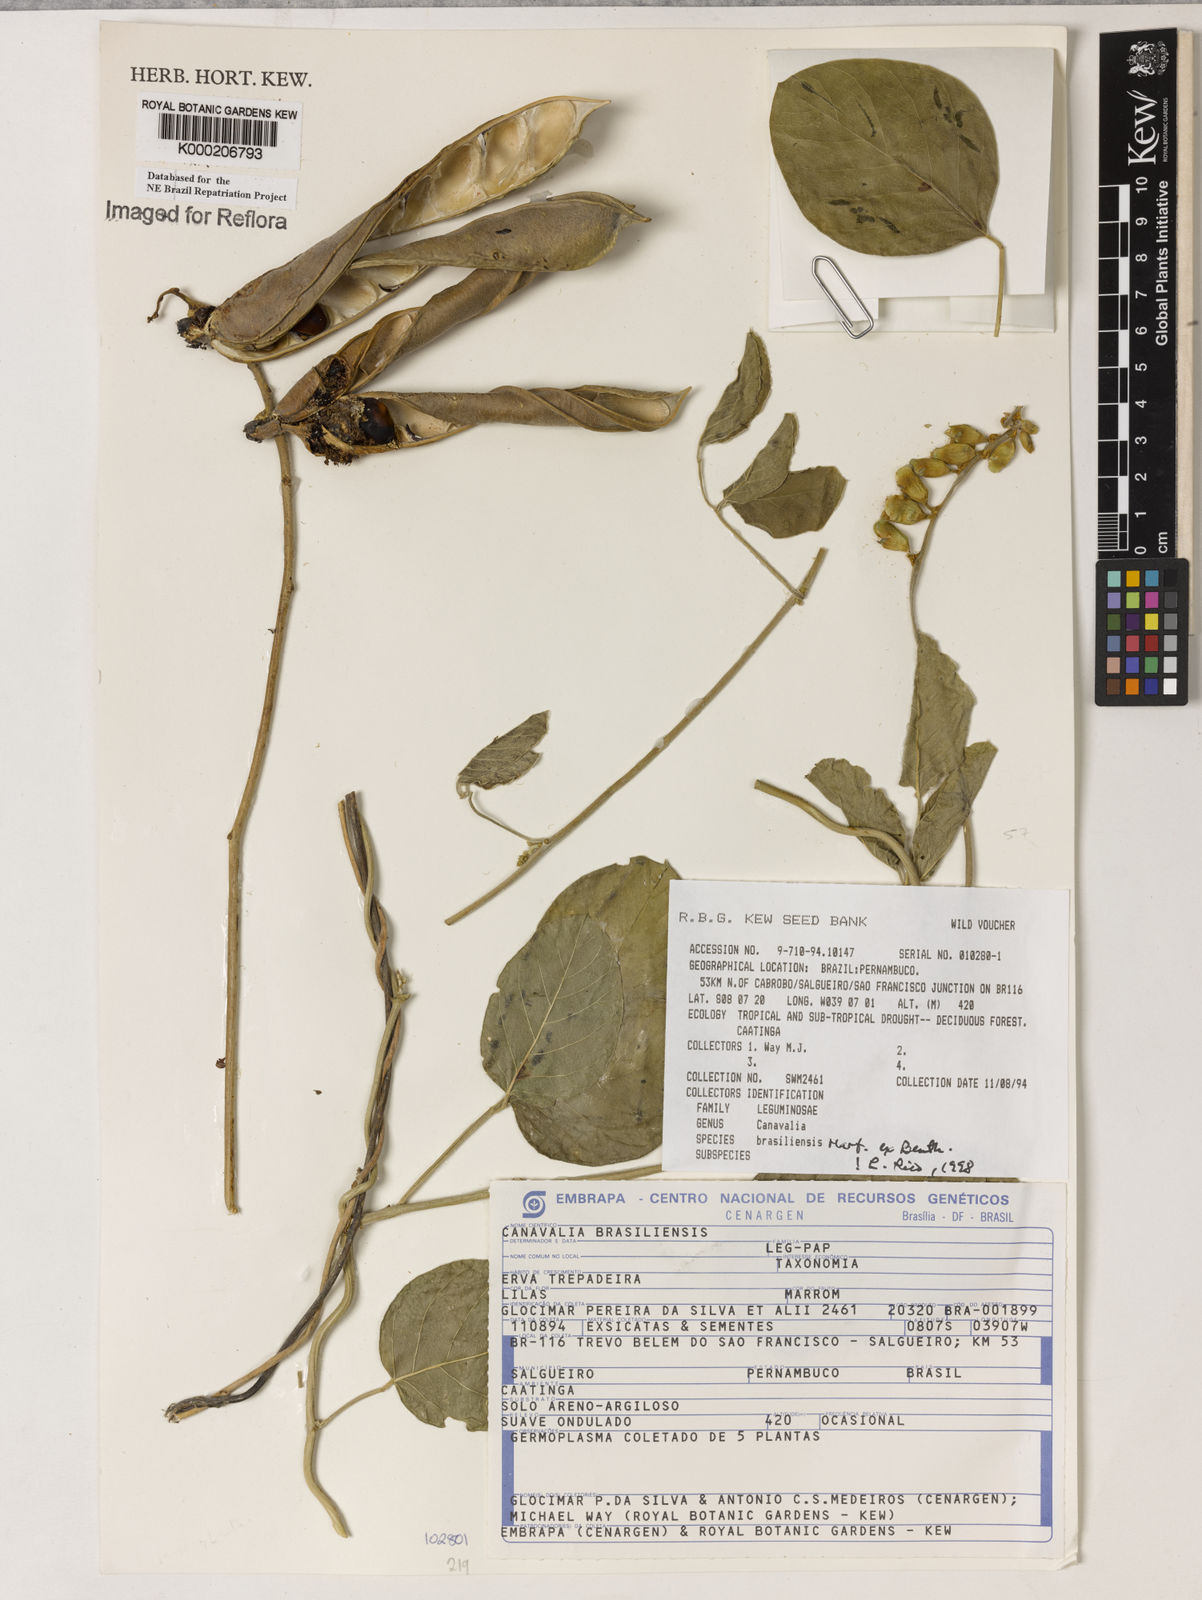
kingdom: Plantae
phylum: Tracheophyta
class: Magnoliopsida
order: Fabales
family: Fabaceae
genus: Canavalia
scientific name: Canavalia brasiliensis
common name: Barbicou-bean
